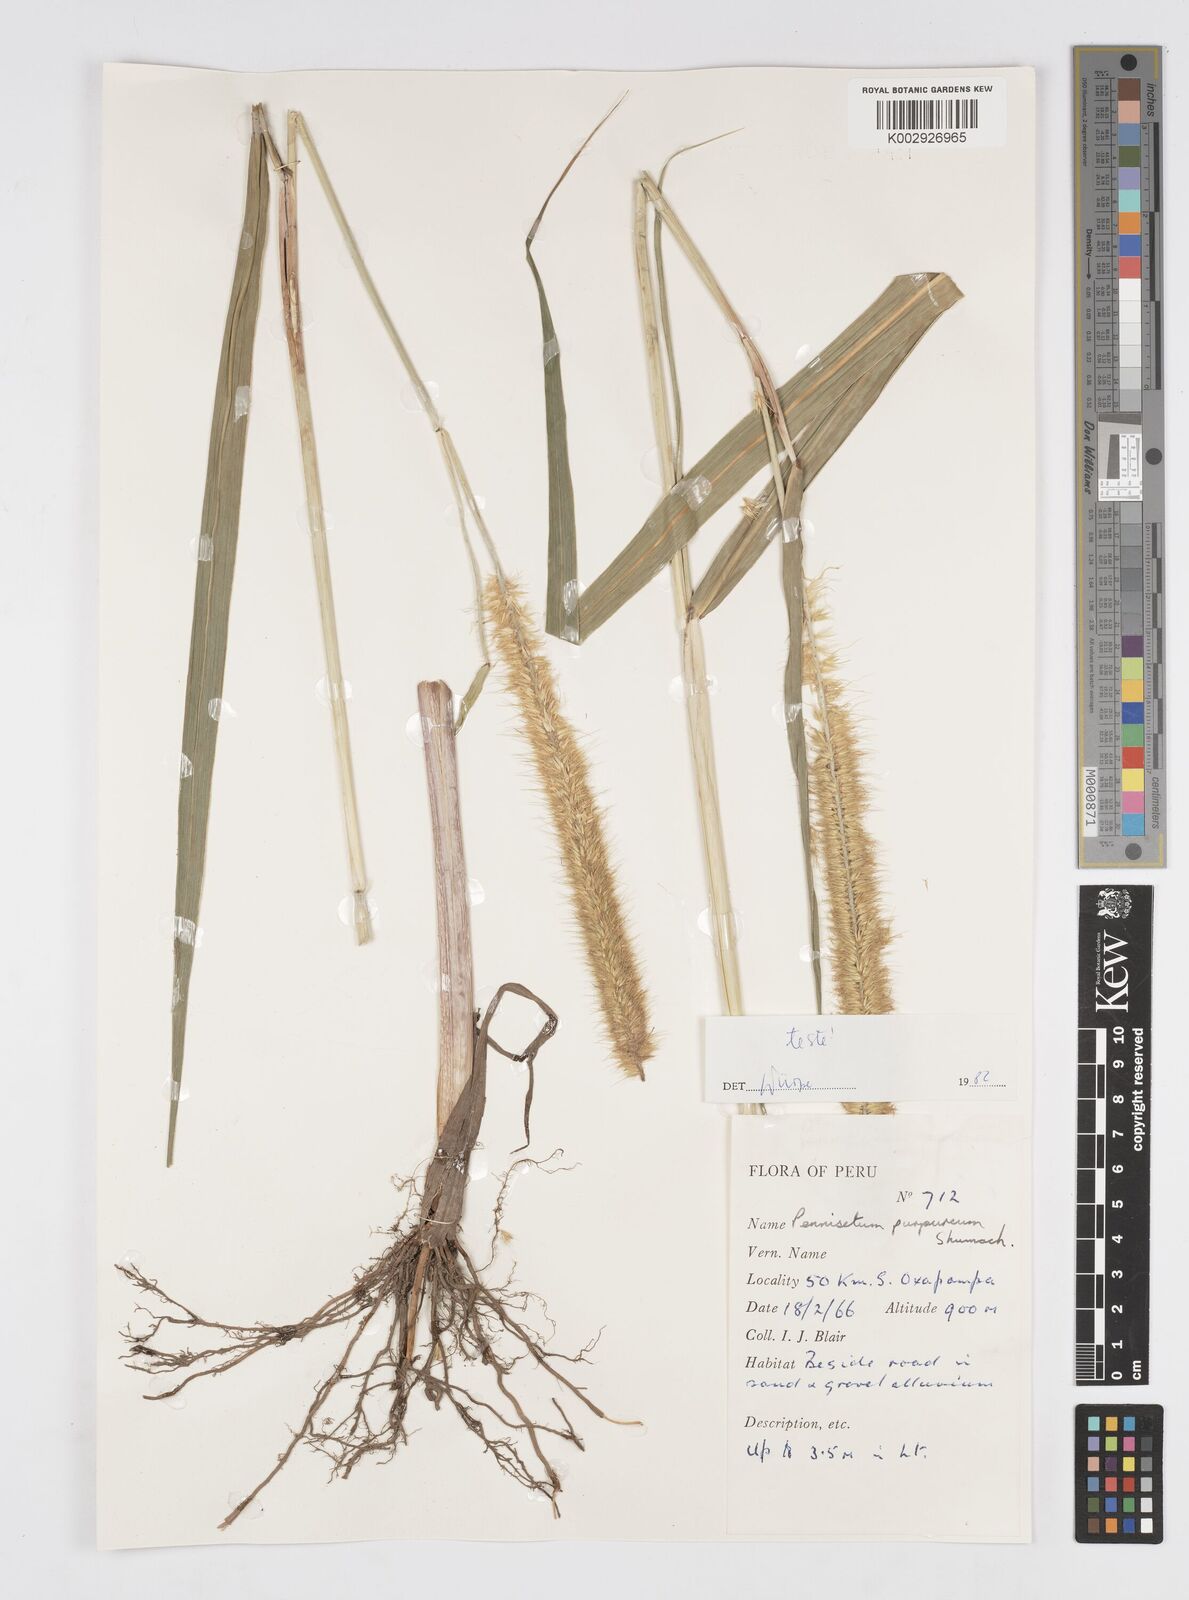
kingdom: Plantae
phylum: Tracheophyta
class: Liliopsida
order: Poales
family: Poaceae
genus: Cenchrus
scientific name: Cenchrus purpureus
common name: Elephant grass
